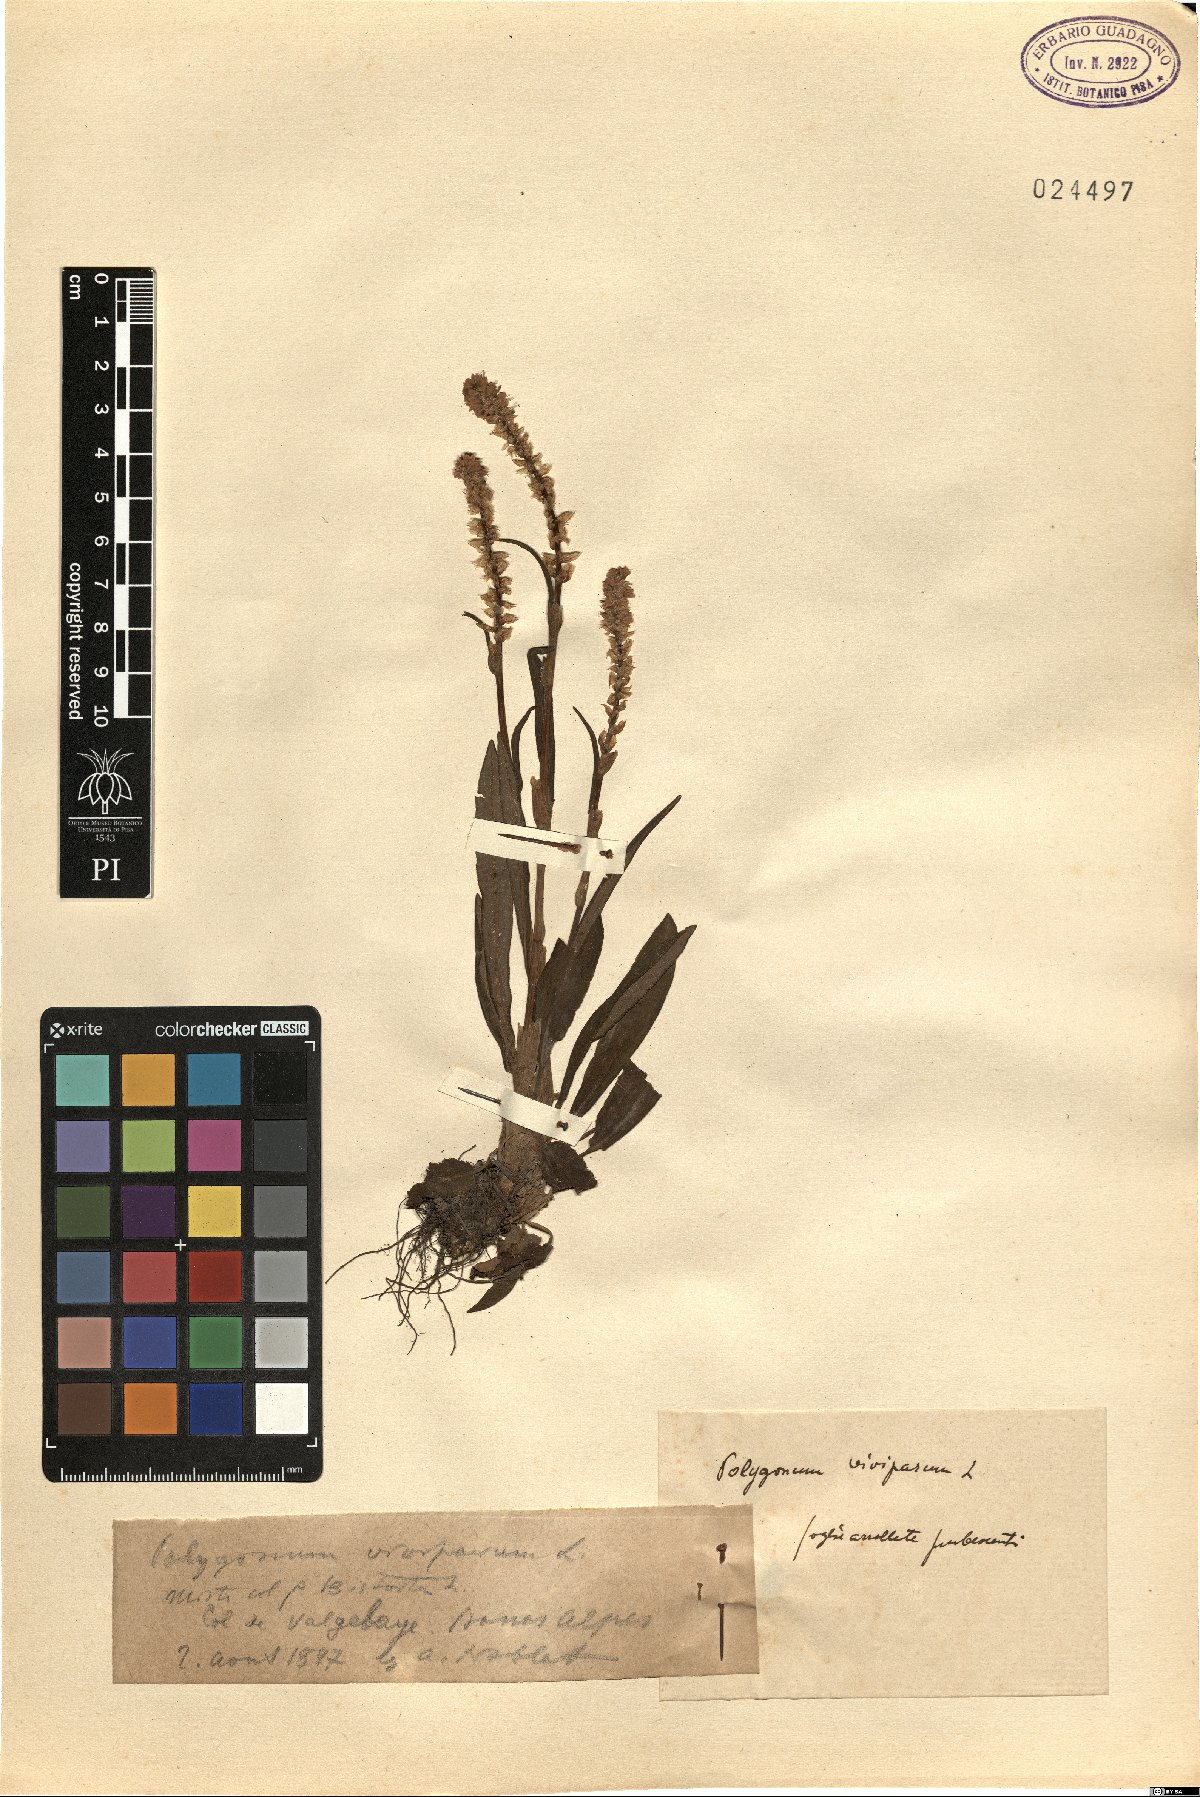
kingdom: Plantae
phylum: Tracheophyta
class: Magnoliopsida
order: Caryophyllales
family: Polygonaceae
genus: Bistorta
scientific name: Bistorta vivipara
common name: Alpine bistort
